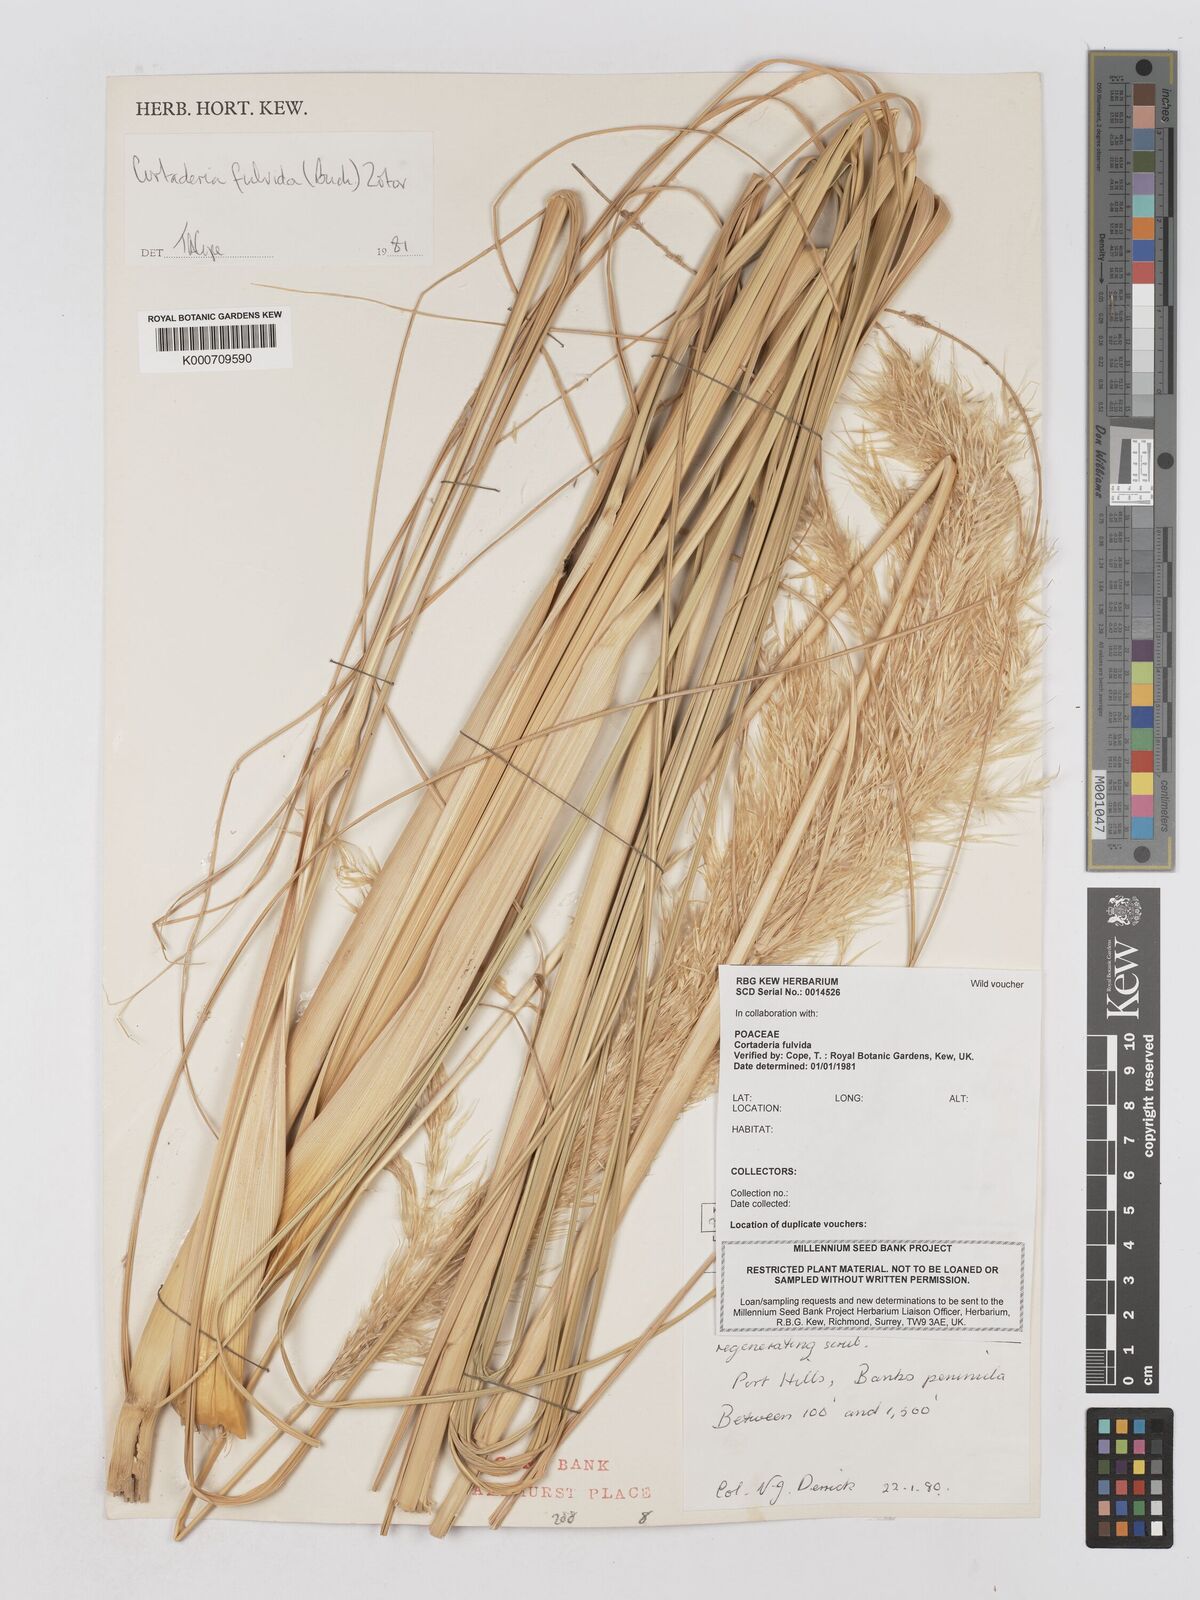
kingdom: Plantae
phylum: Tracheophyta
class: Liliopsida
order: Poales
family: Poaceae
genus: Austroderia
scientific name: Austroderia fulvida
